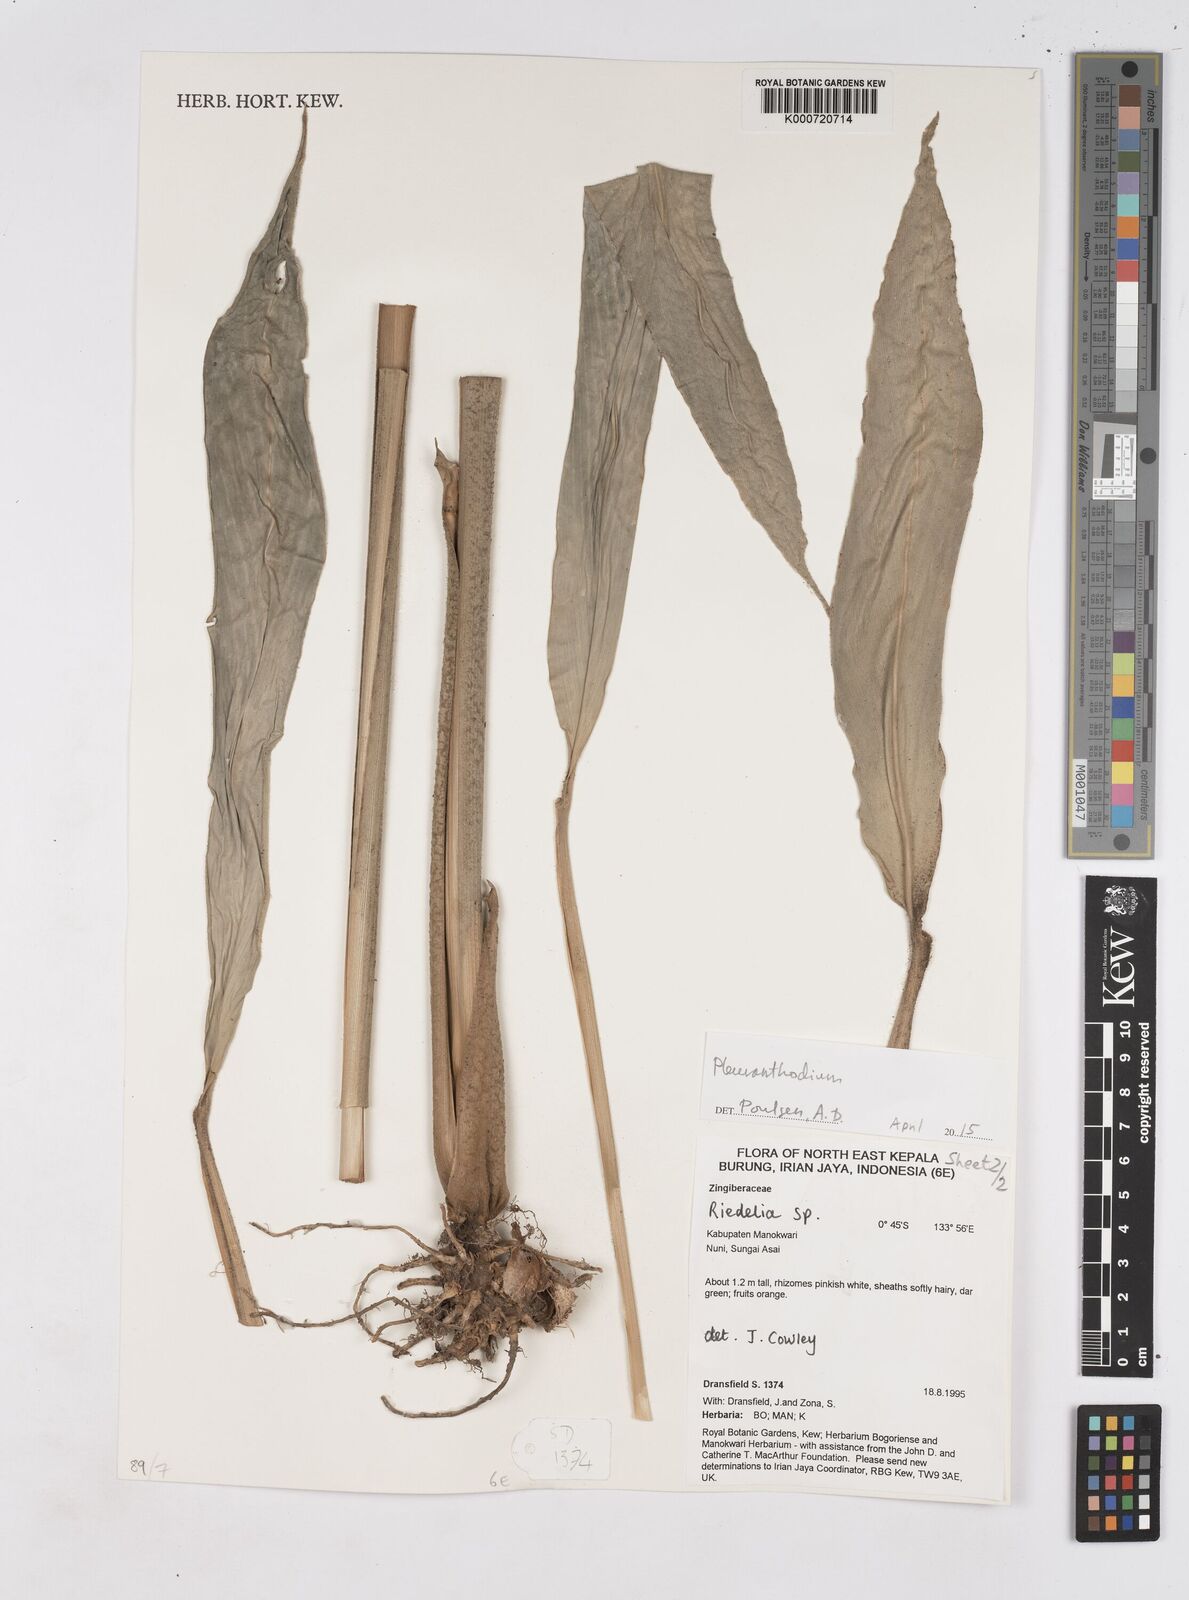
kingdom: Plantae
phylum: Tracheophyta
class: Liliopsida
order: Zingiberales
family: Zingiberaceae
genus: Pleuranthodium
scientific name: Pleuranthodium
